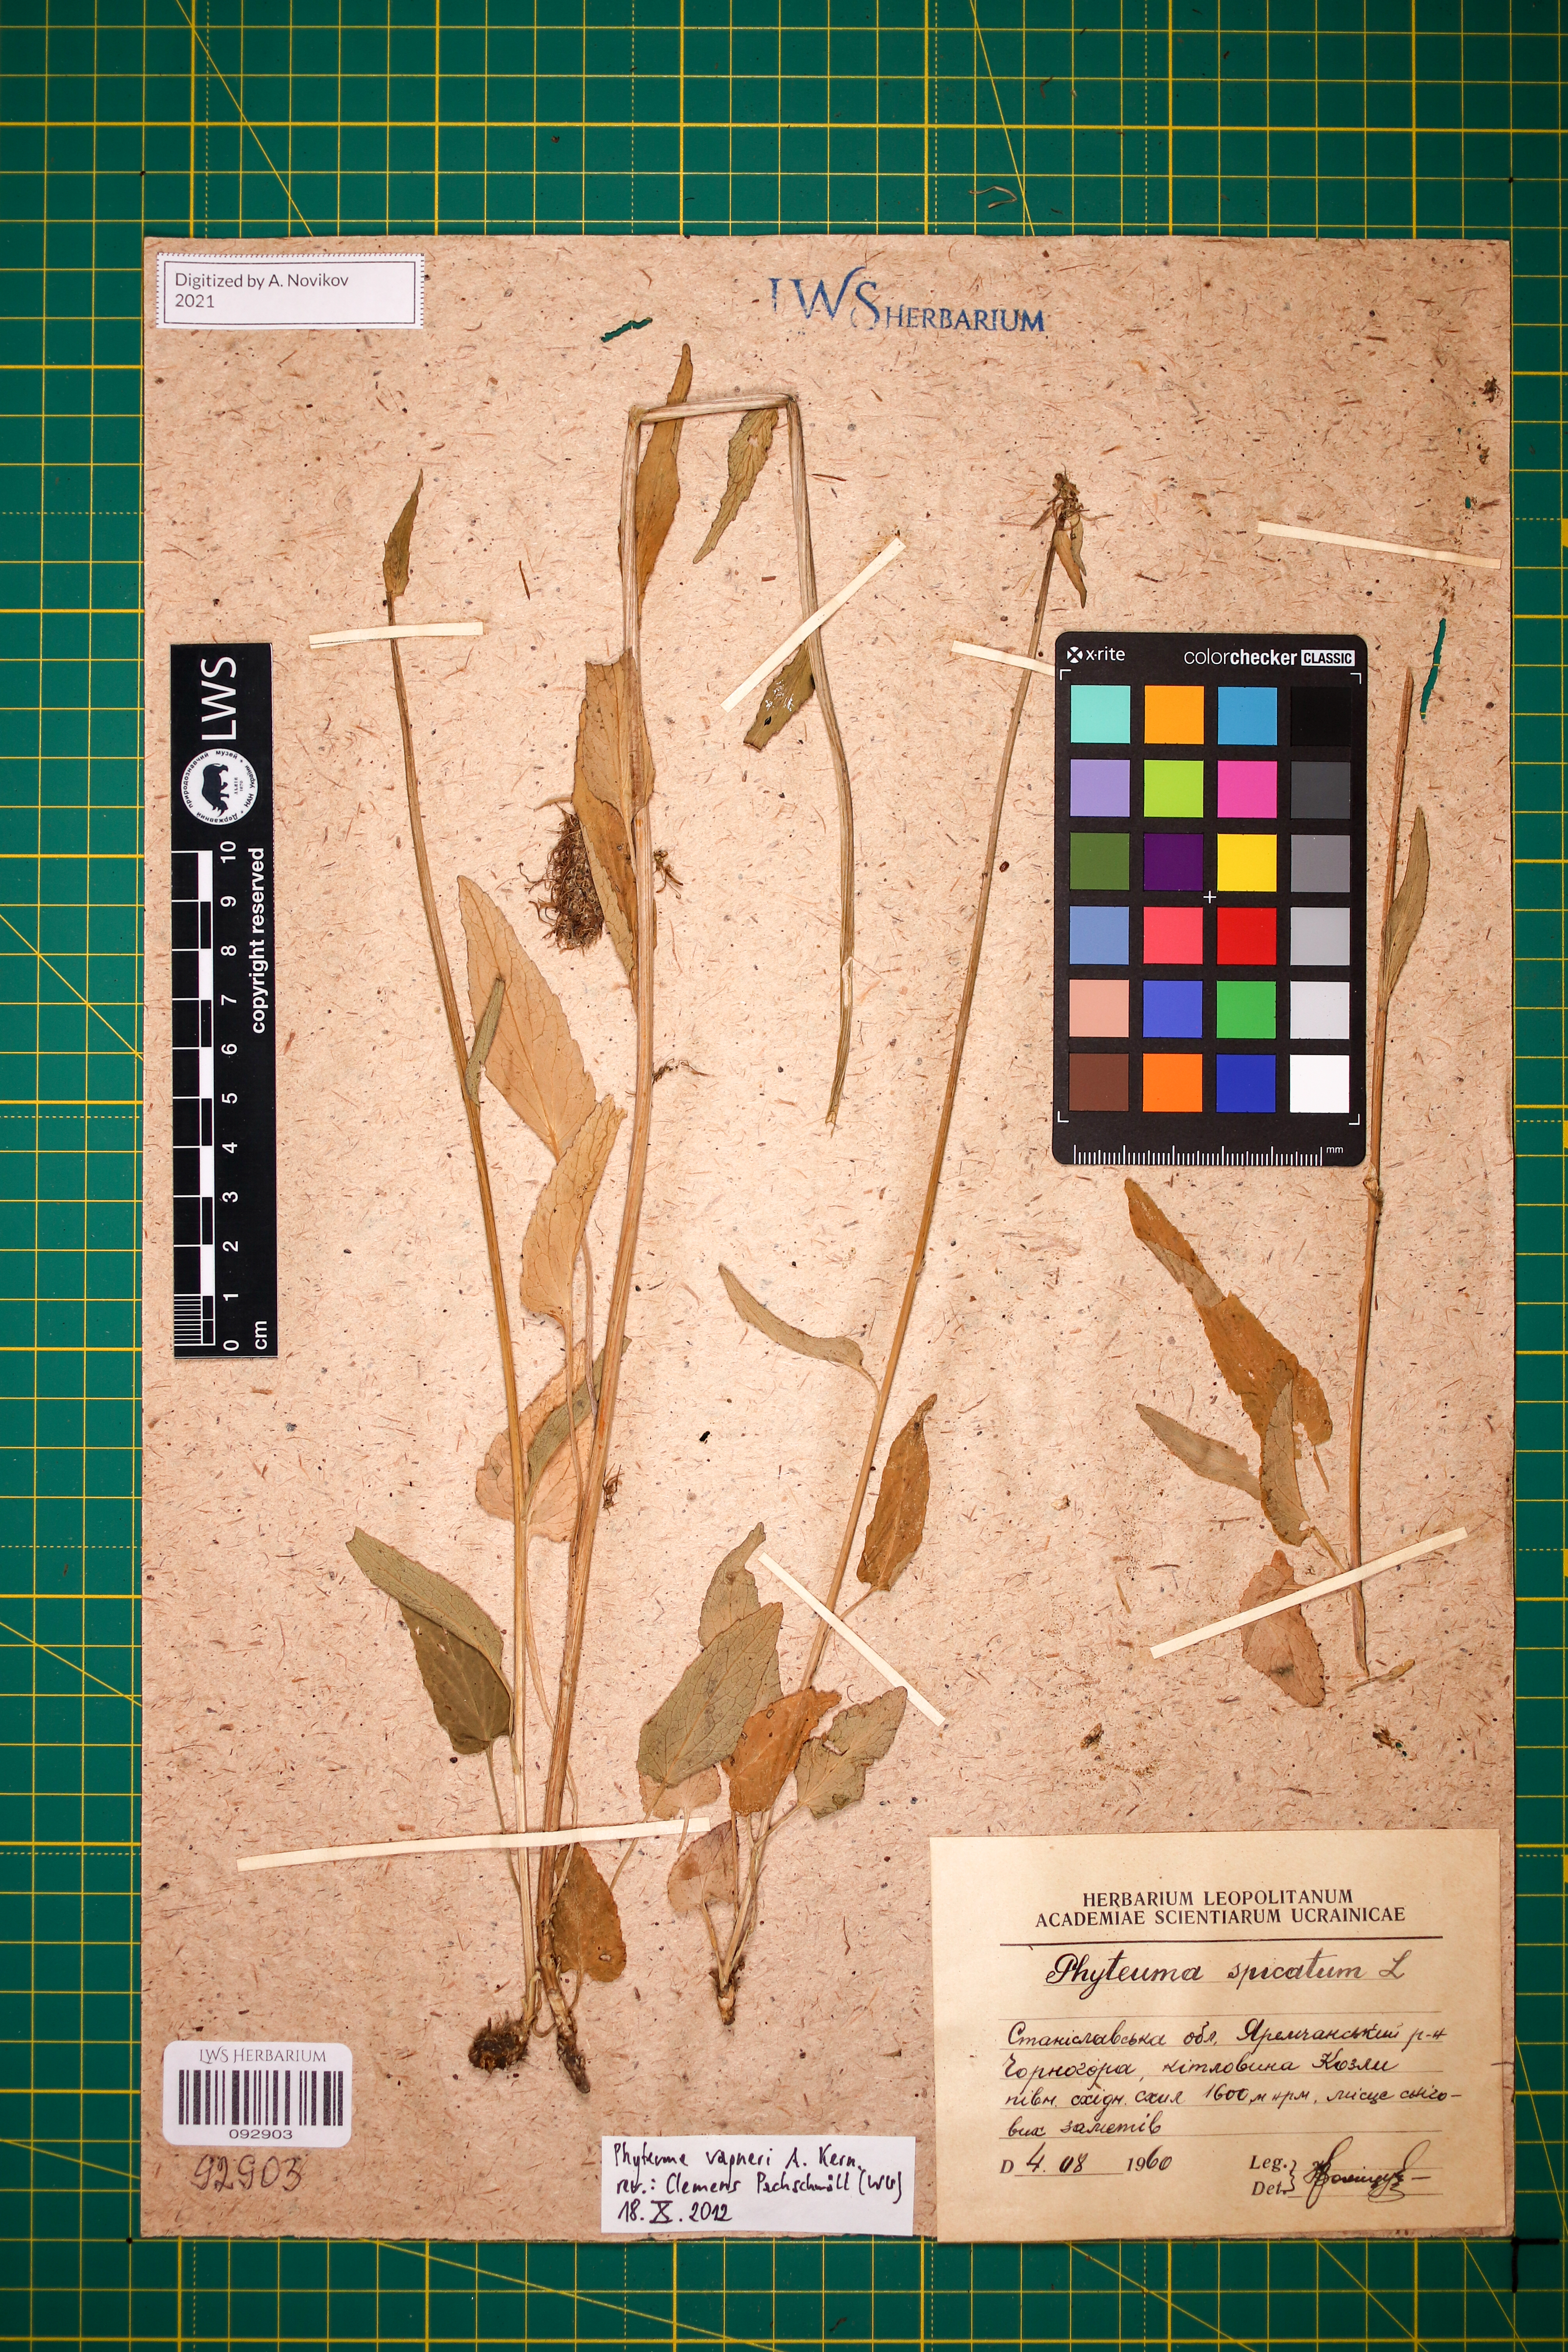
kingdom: Plantae
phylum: Tracheophyta
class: Magnoliopsida
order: Asterales
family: Campanulaceae
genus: Phyteuma
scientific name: Phyteuma vagneri
